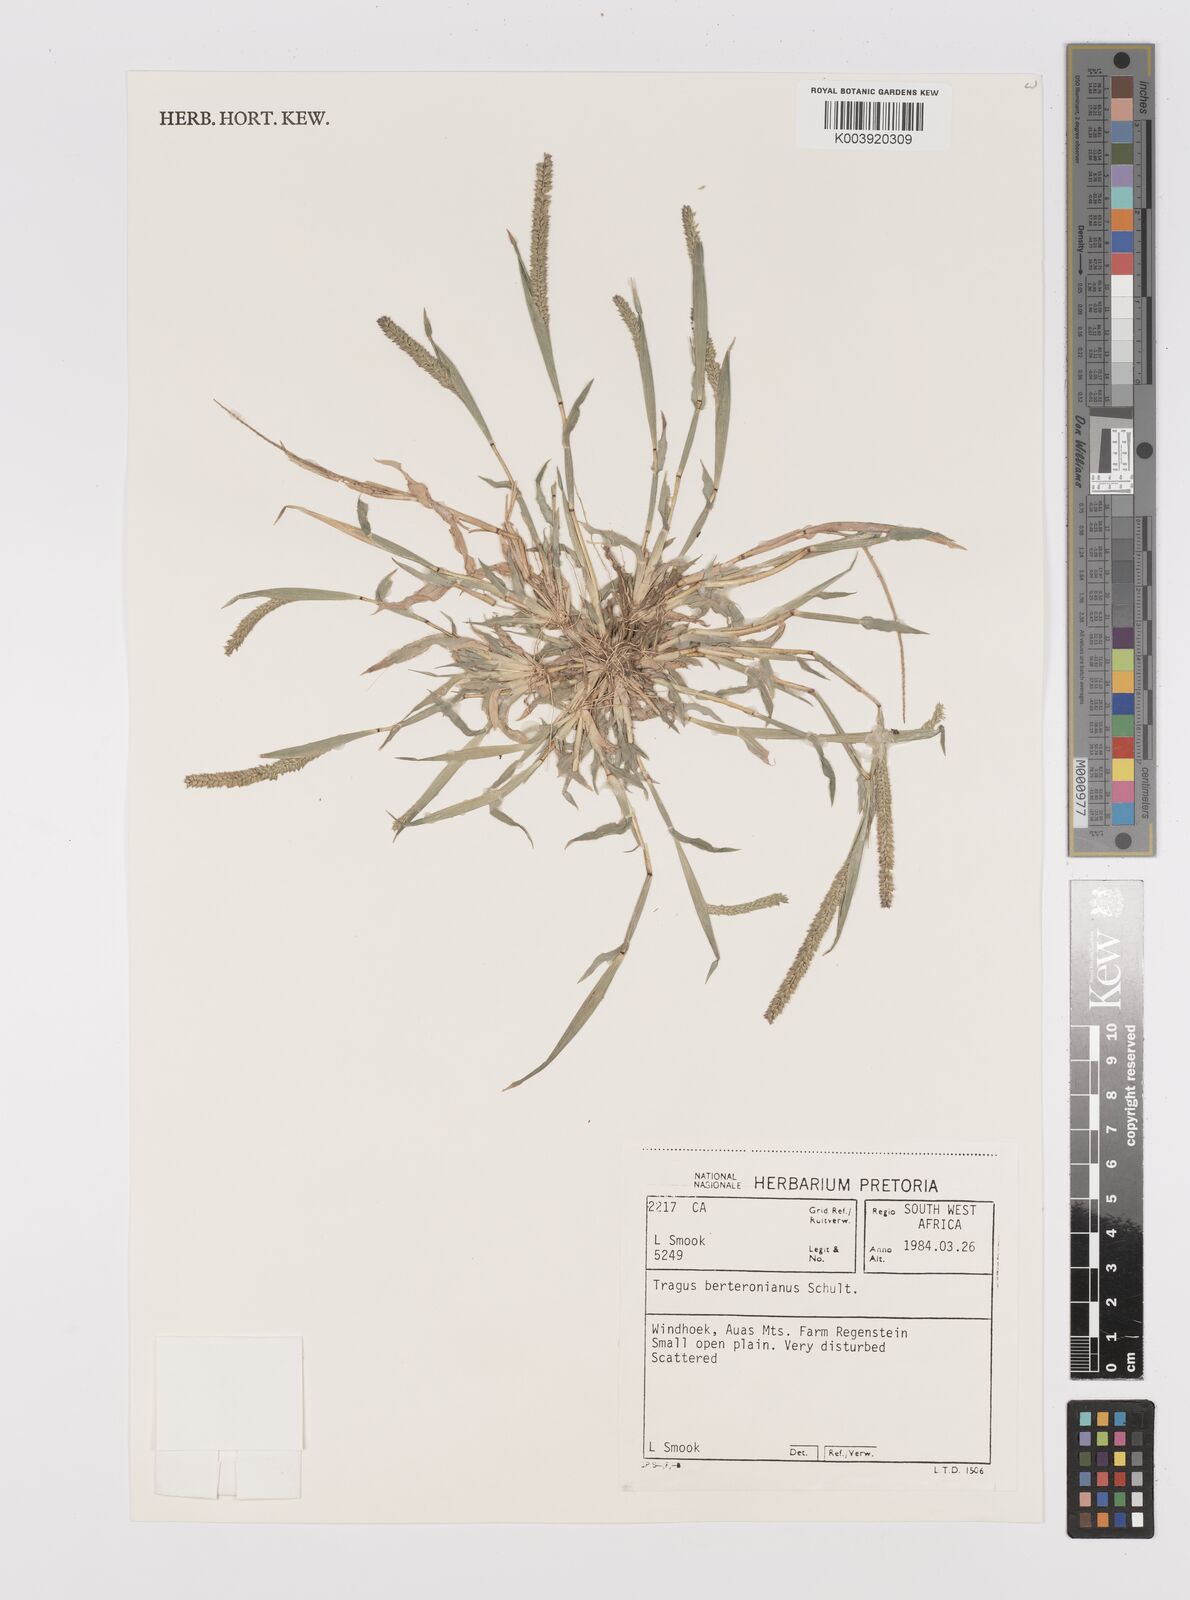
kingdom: Plantae
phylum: Tracheophyta
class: Liliopsida
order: Poales
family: Poaceae
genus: Tragus
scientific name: Tragus berteronianus
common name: African bur-grass
